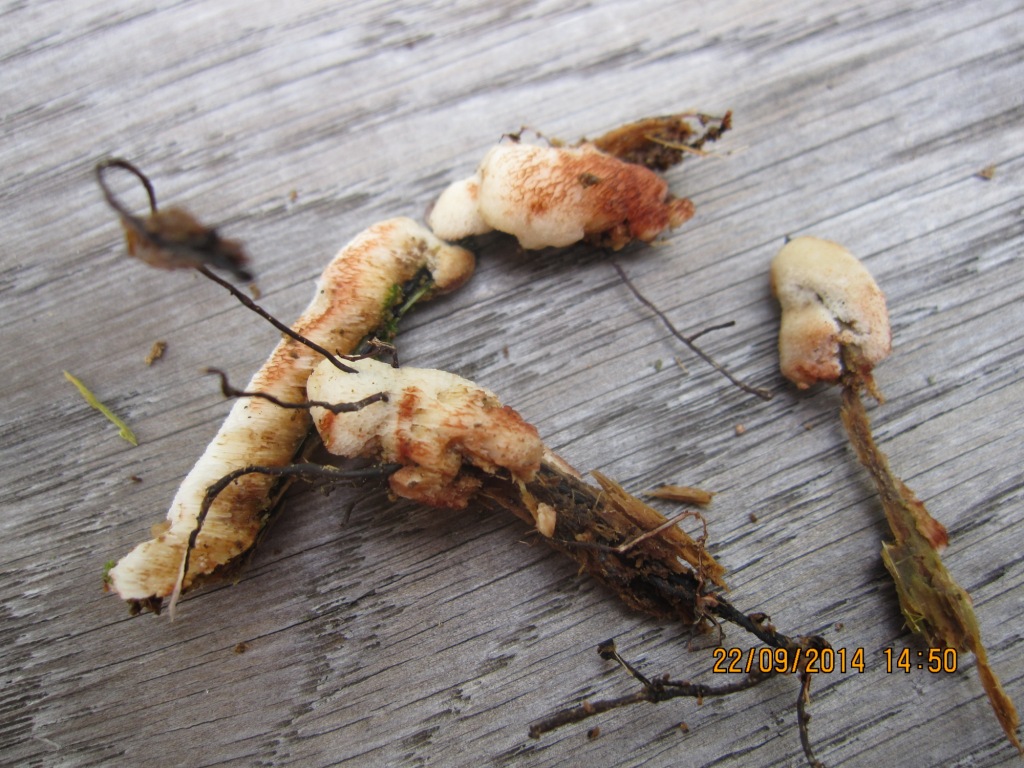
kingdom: Fungi
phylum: Basidiomycota
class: Agaricomycetes
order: Polyporales
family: Meripilaceae
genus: Rigidoporus
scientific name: Rigidoporus sanguinolentus
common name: blod-skorpeporesvamp
